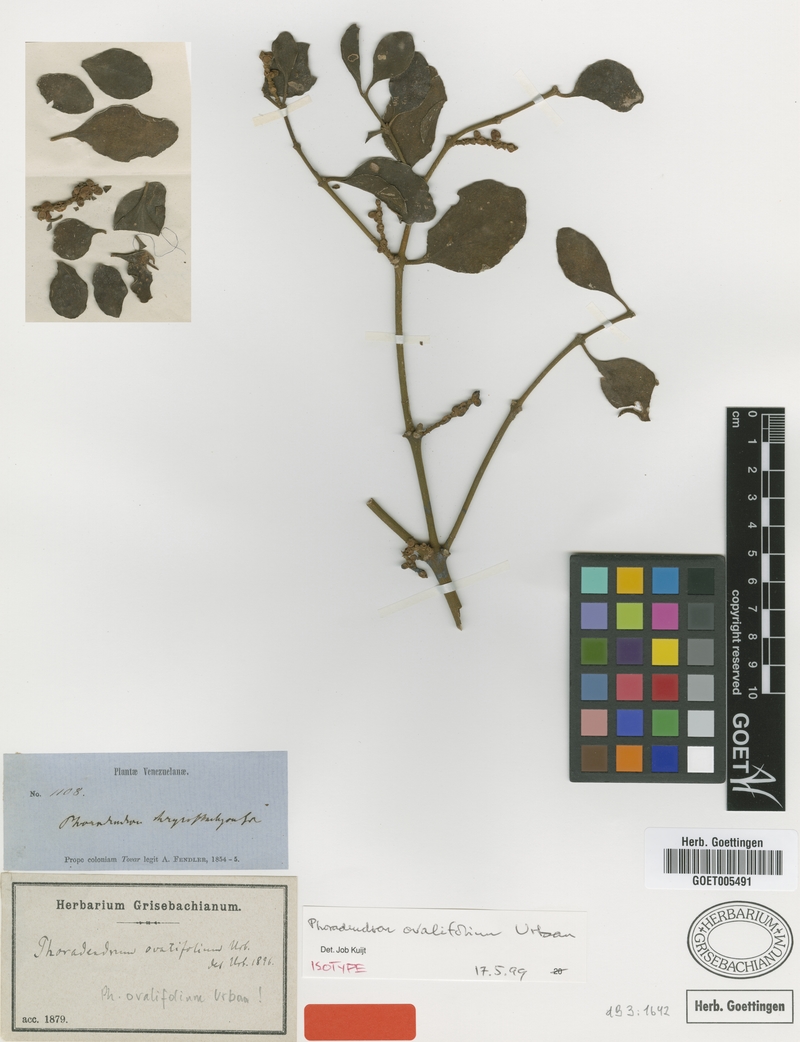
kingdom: Plantae
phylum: Tracheophyta
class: Magnoliopsida
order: Santalales
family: Viscaceae
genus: Phoradendron
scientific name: Phoradendron ovalifolium
